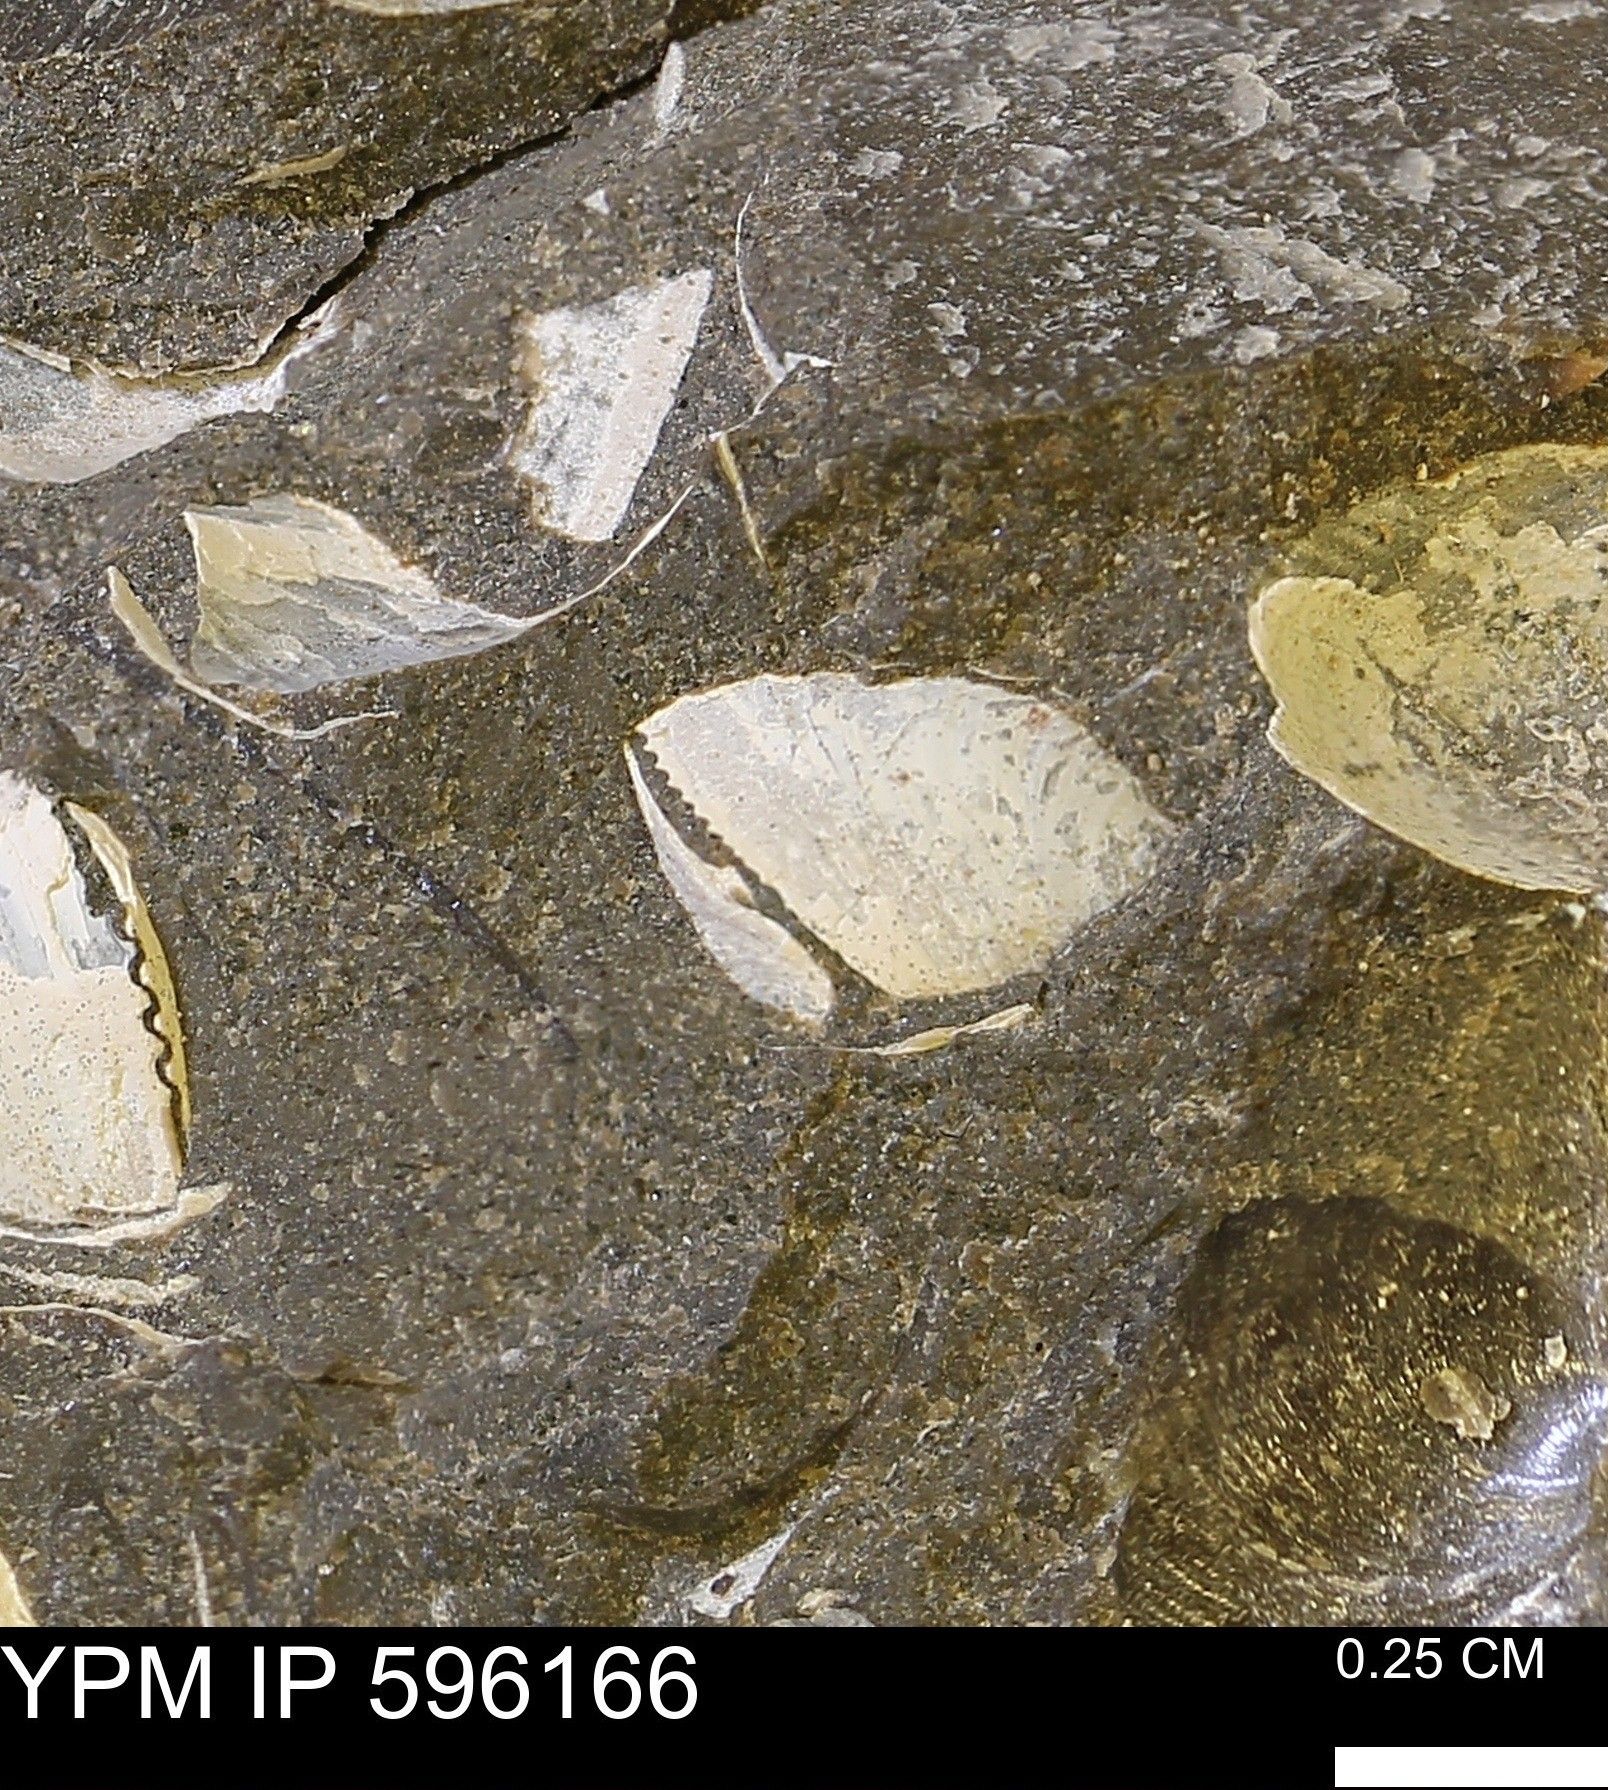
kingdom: Animalia
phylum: Mollusca
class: Bivalvia
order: Arcida
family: Limopsidae
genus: Limopsis
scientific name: Limopsis
